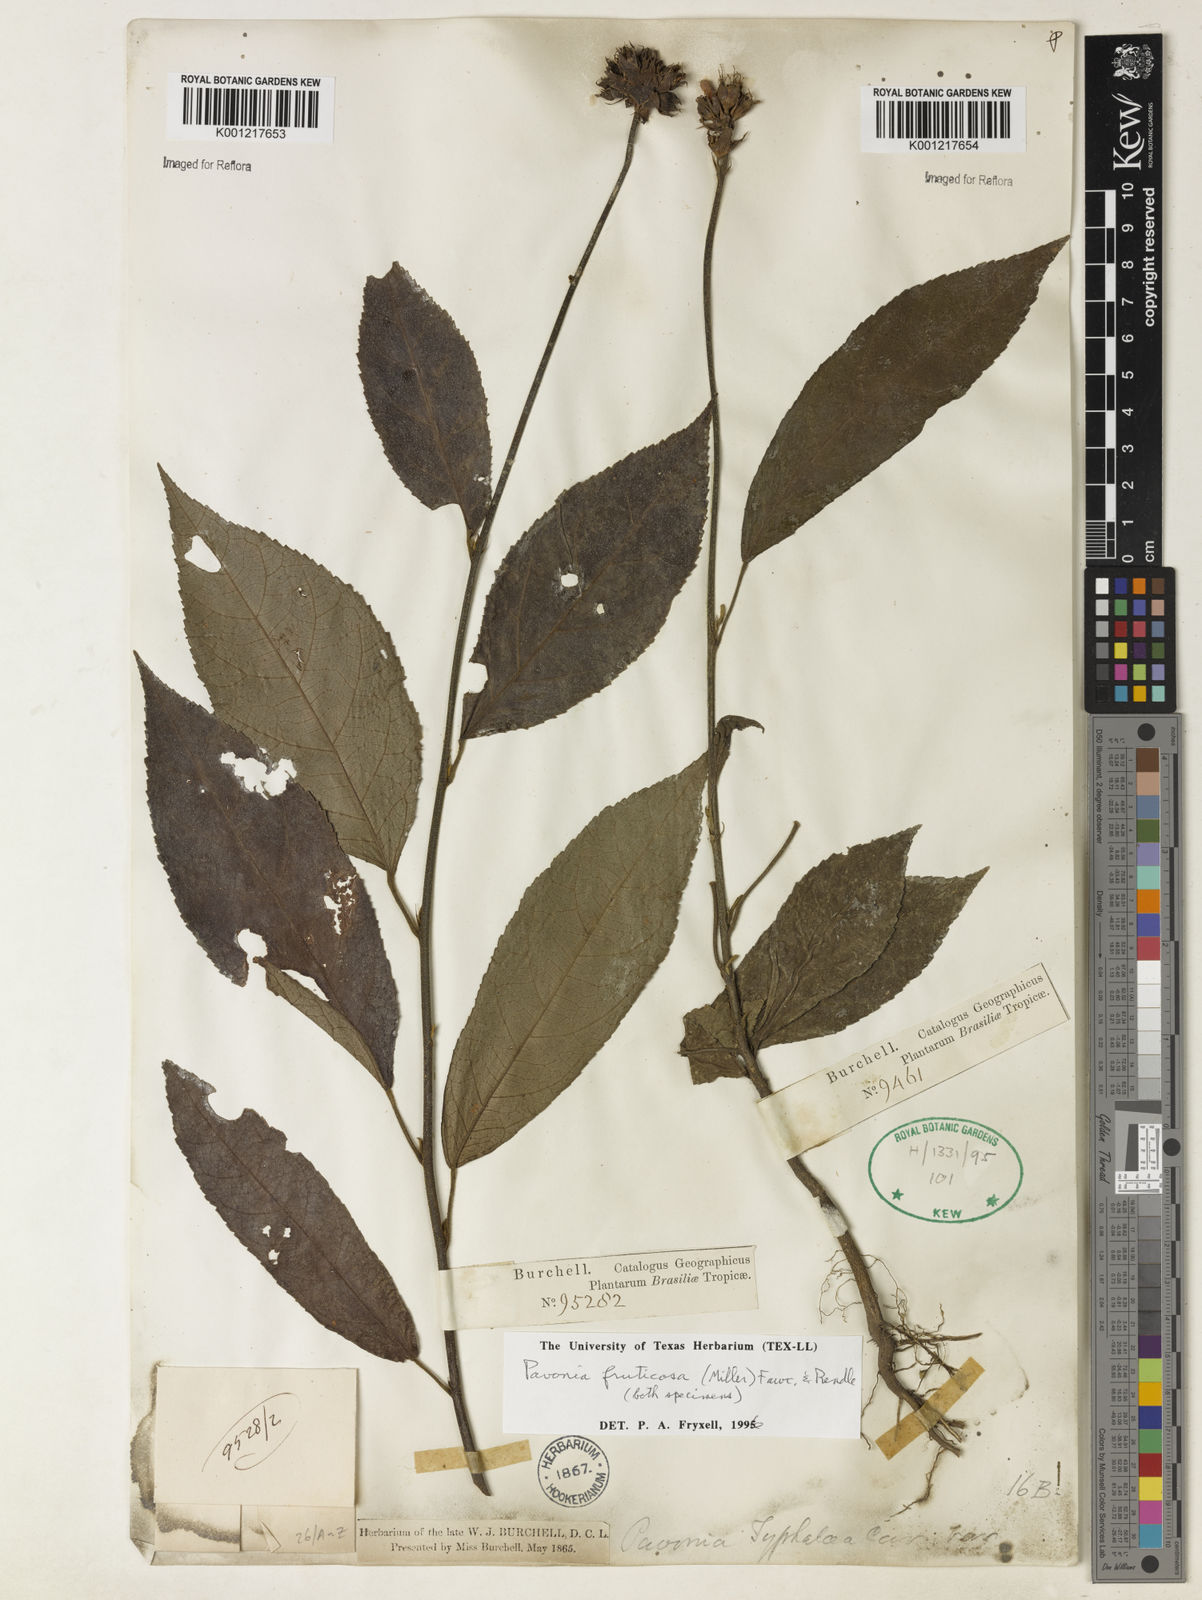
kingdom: Plantae
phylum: Tracheophyta
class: Magnoliopsida
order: Malvales
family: Malvaceae
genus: Pavonia
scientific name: Pavonia fruticosa
